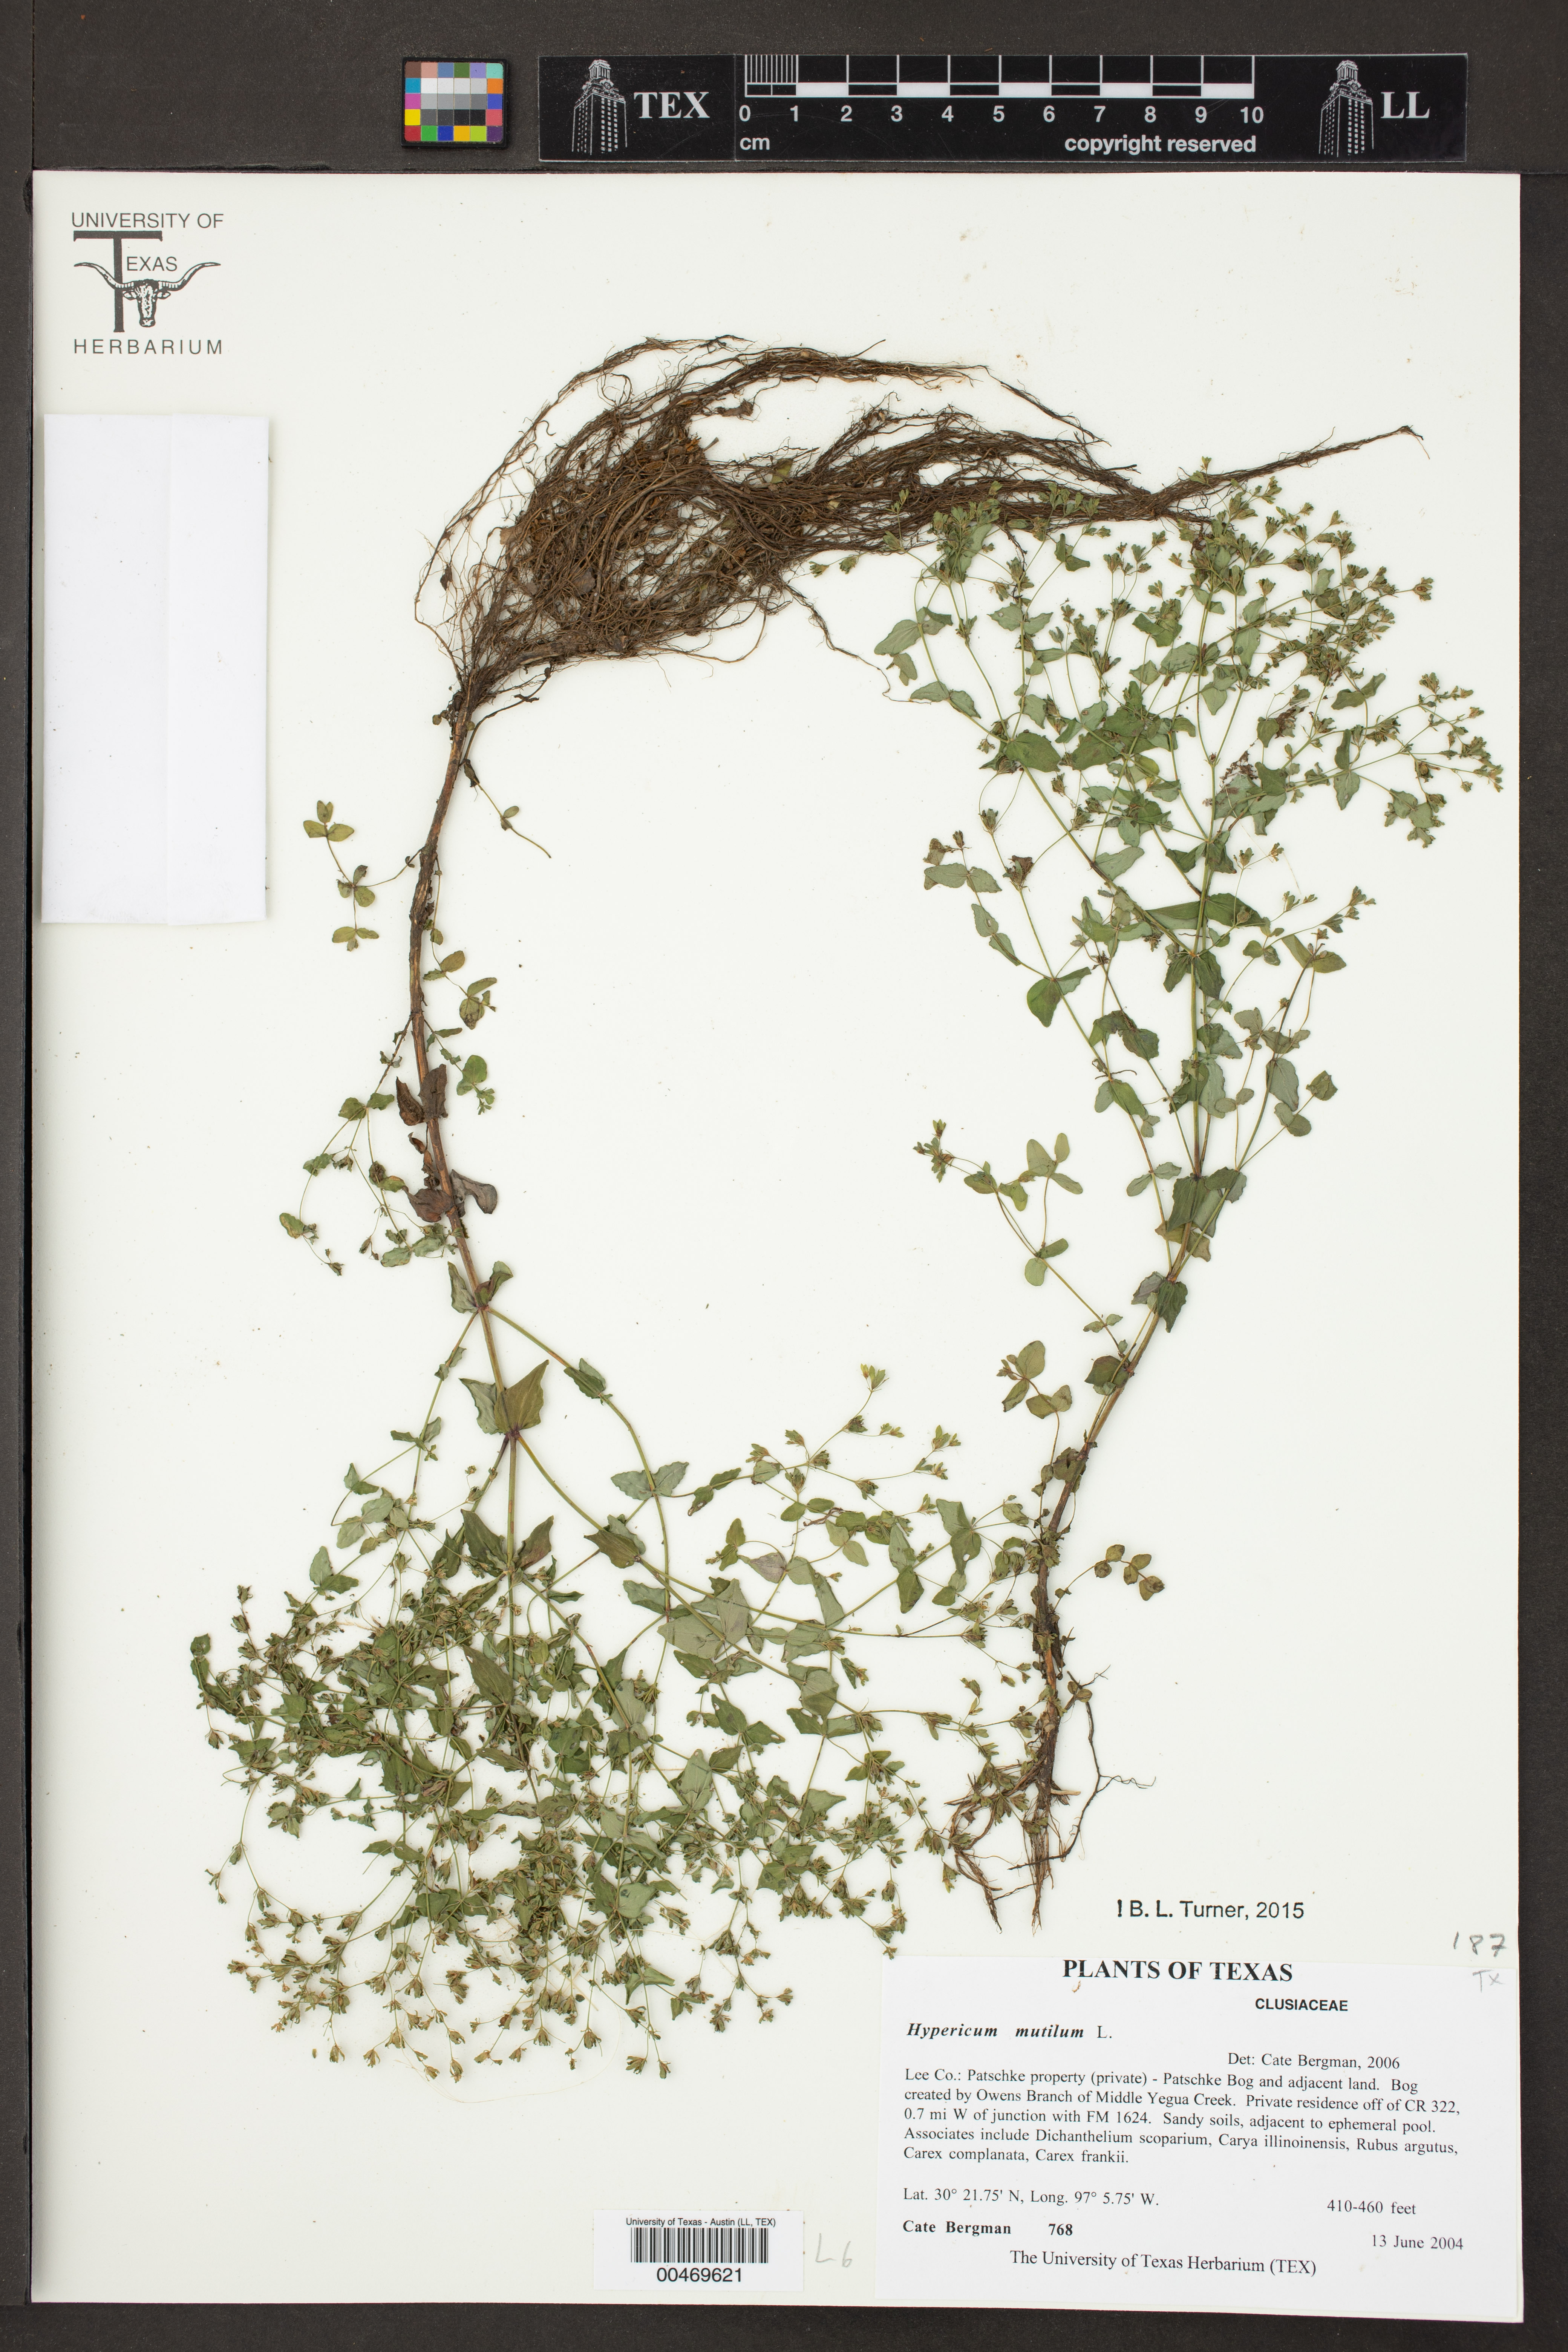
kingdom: Plantae
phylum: Tracheophyta
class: Magnoliopsida
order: Malpighiales
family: Hypericaceae
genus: Hypericum
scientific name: Hypericum mutilum
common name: Dwarf st. john's-wort
